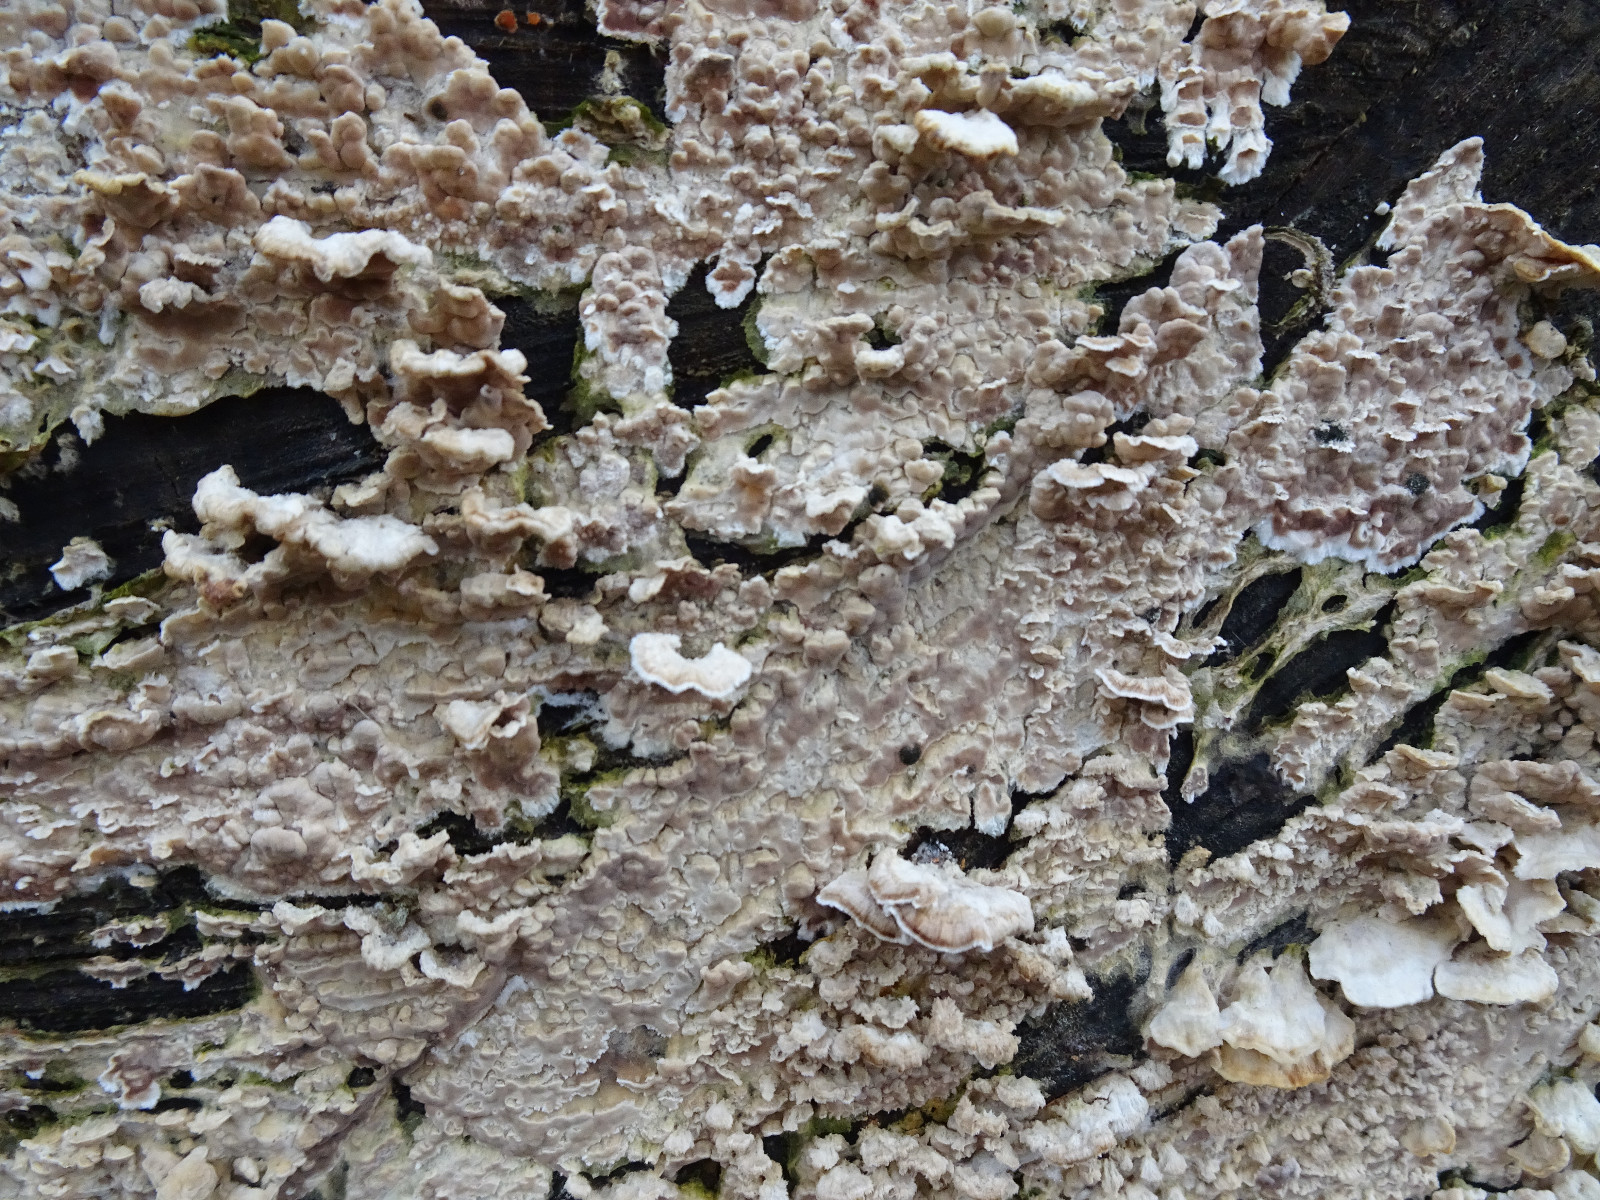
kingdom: Fungi
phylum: Basidiomycota
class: Agaricomycetes
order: Agaricales
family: Physalacriaceae
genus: Cylindrobasidium
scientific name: Cylindrobasidium evolvens
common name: sprækkehinde
